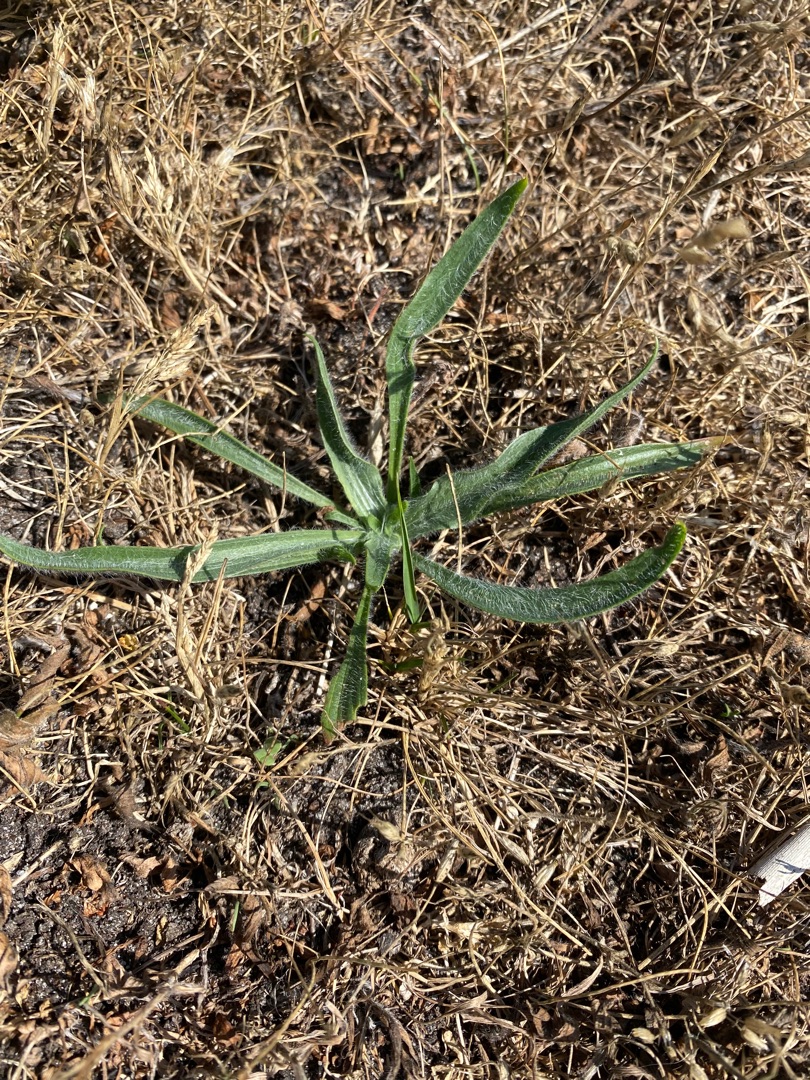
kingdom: Plantae
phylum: Tracheophyta
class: Magnoliopsida
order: Lamiales
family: Plantaginaceae
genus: Plantago
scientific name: Plantago lanceolata
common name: Lancet-vejbred
